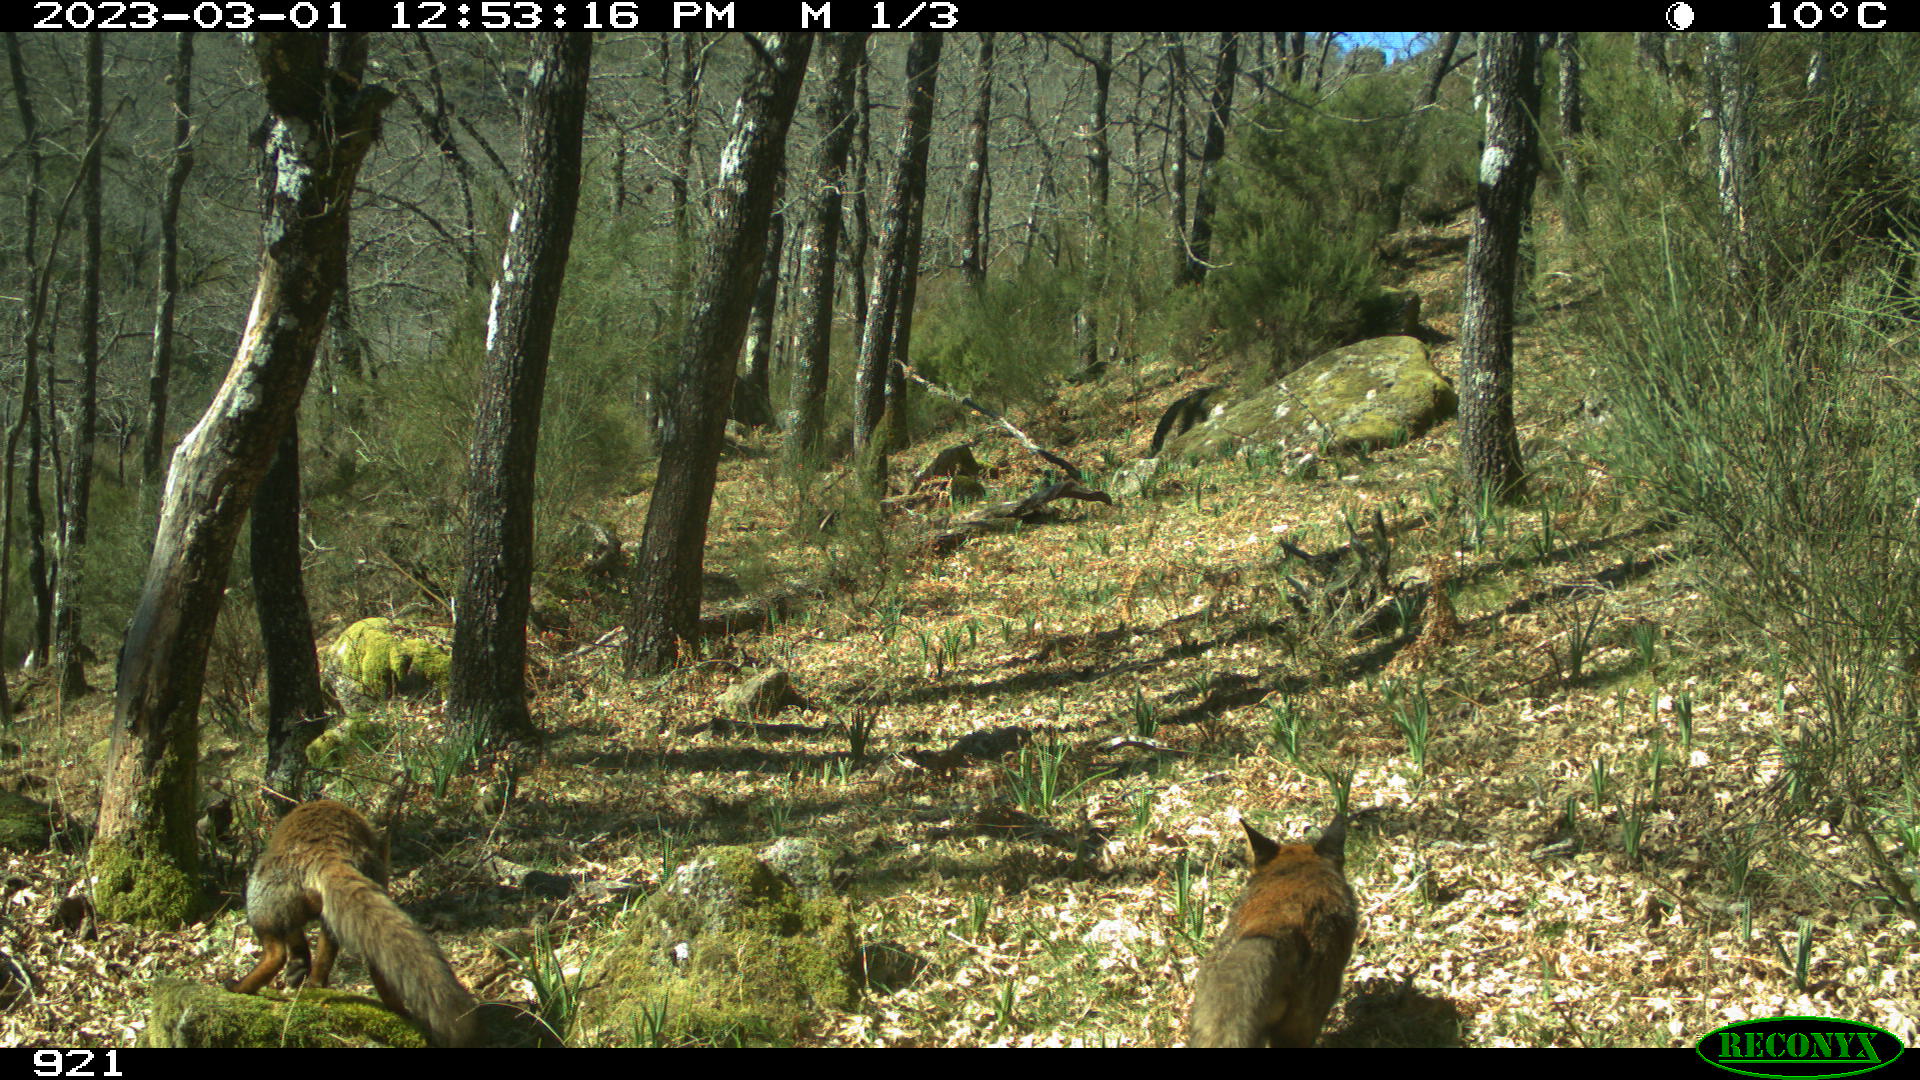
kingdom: Animalia
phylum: Chordata
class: Mammalia
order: Carnivora
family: Canidae
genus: Vulpes
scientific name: Vulpes vulpes
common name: Red fox
